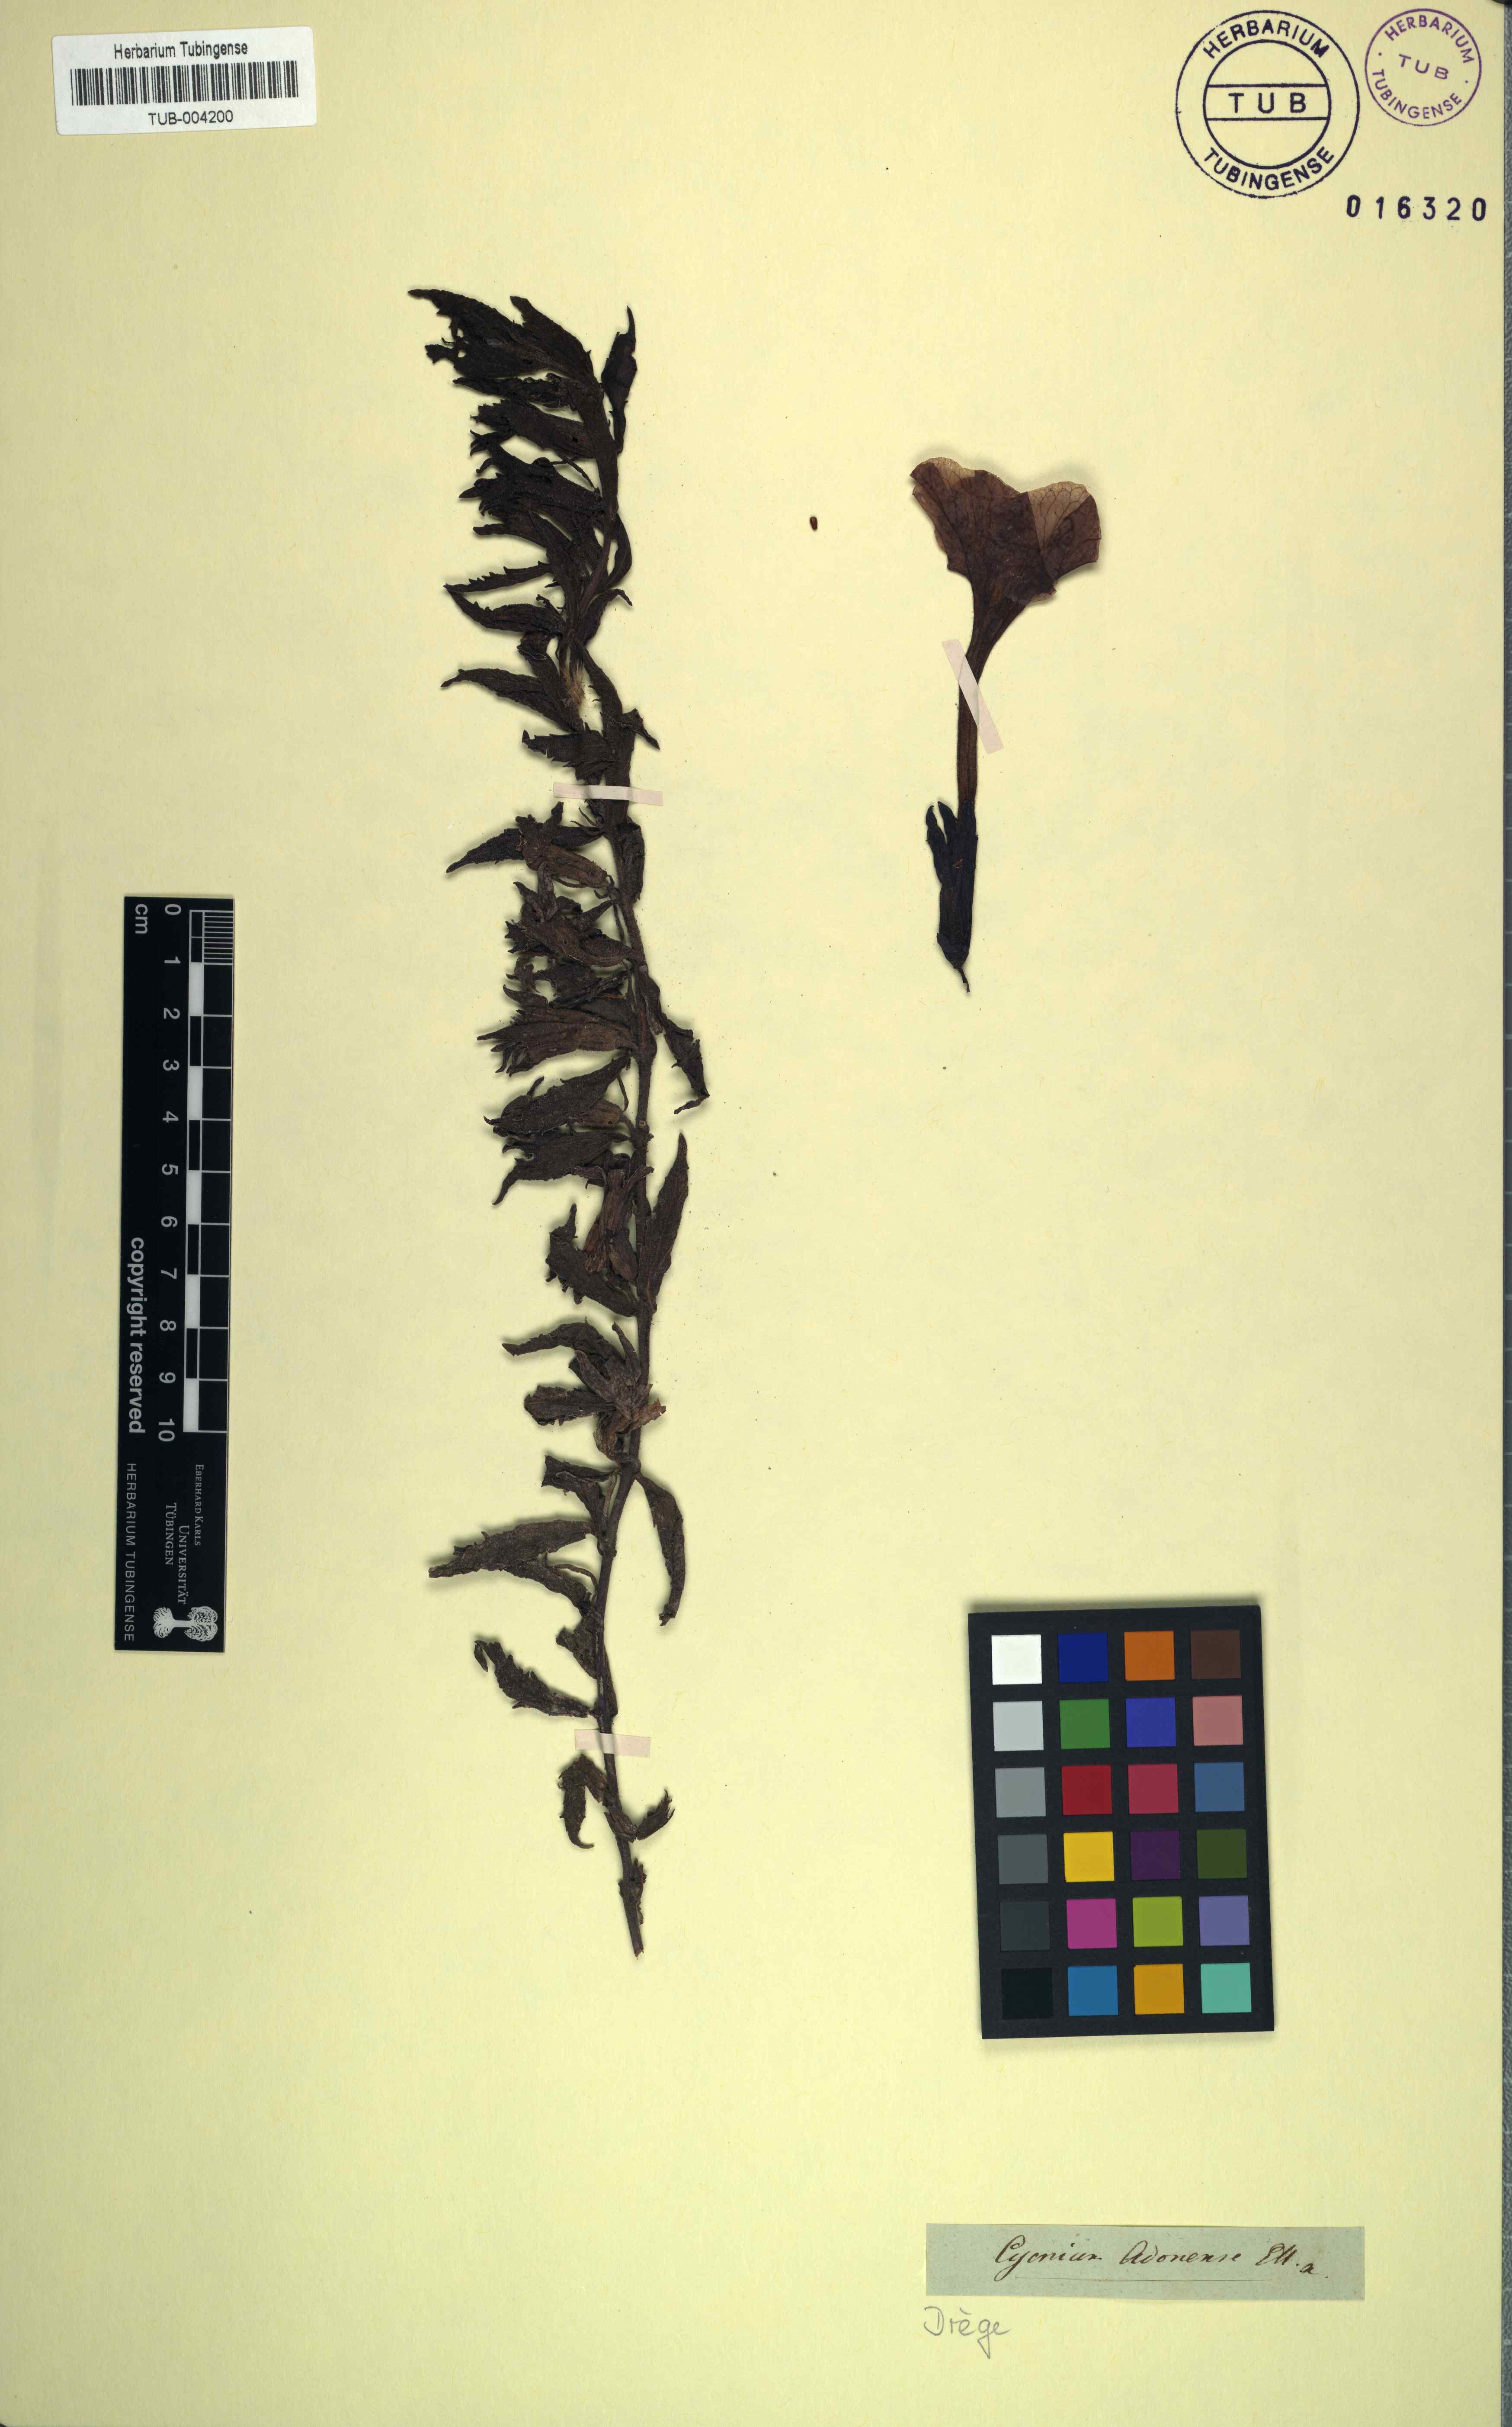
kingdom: Plantae
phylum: Tracheophyta
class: Magnoliopsida
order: Lamiales
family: Orobanchaceae
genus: Cycnium
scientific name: Cycnium adonense
